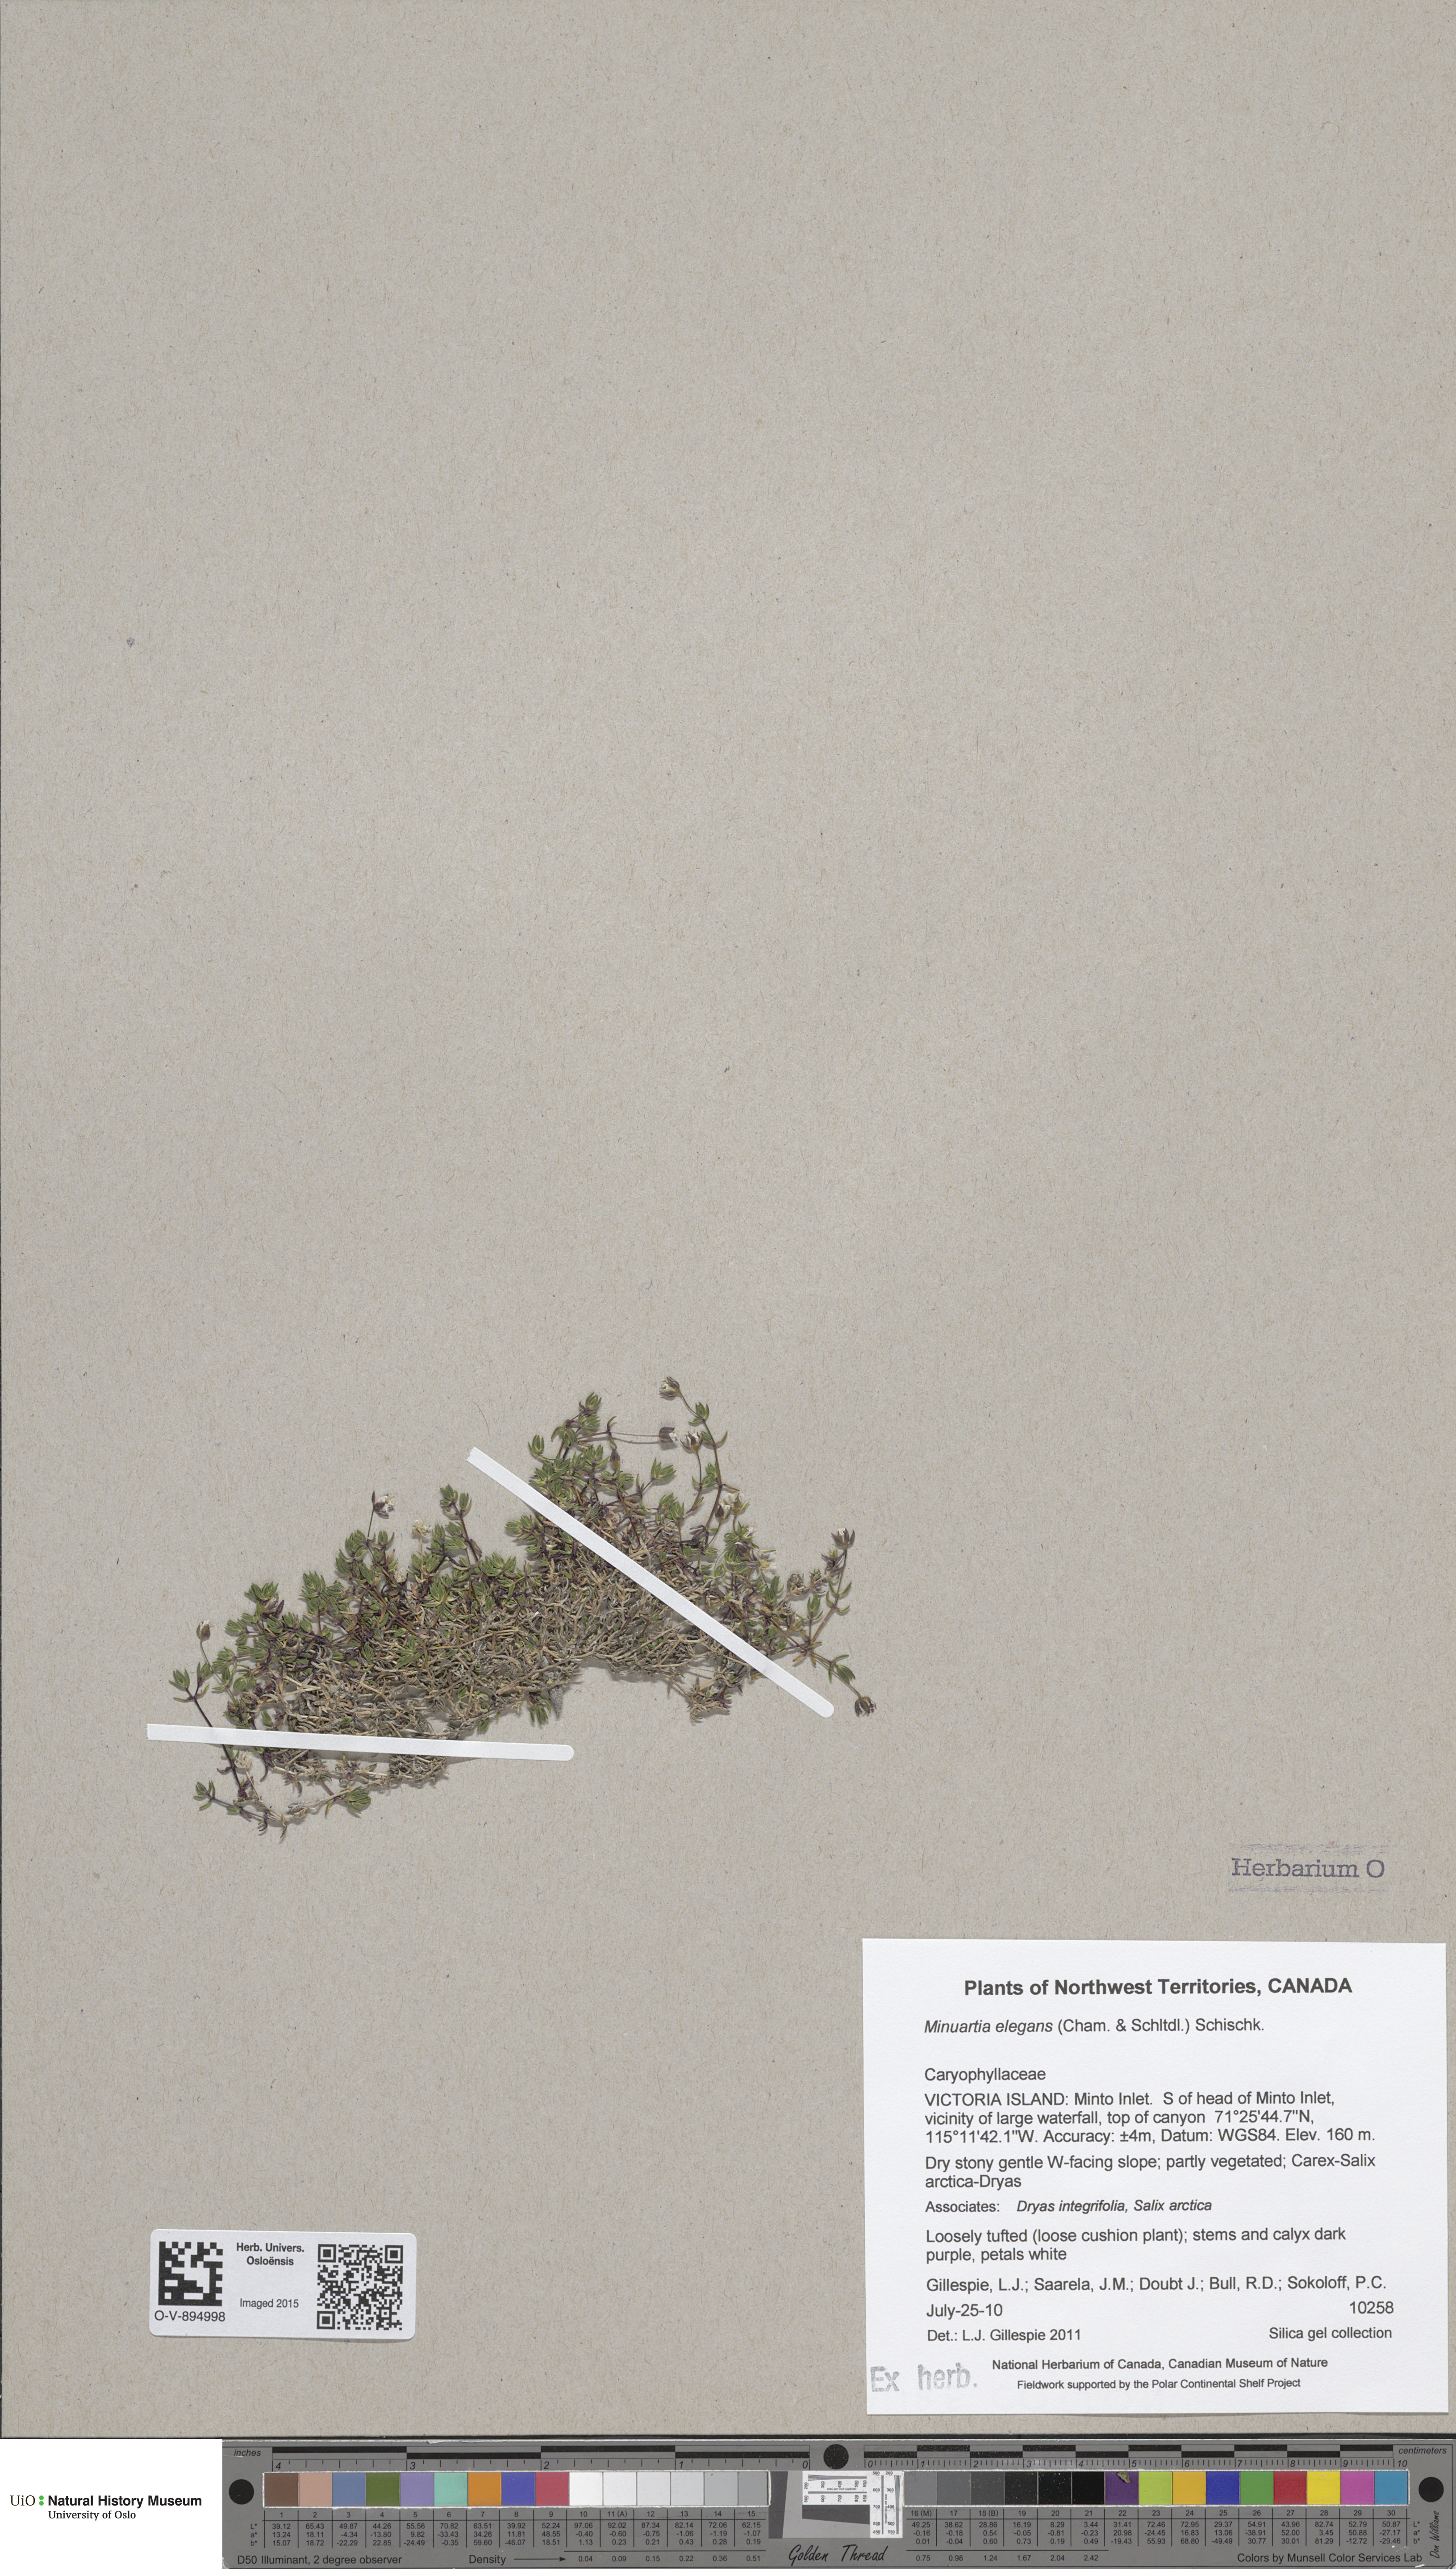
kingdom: Plantae
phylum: Tracheophyta
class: Magnoliopsida
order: Caryophyllales
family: Caryophyllaceae
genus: Sabulina
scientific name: Sabulina elegans
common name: Elegant stitchwort
